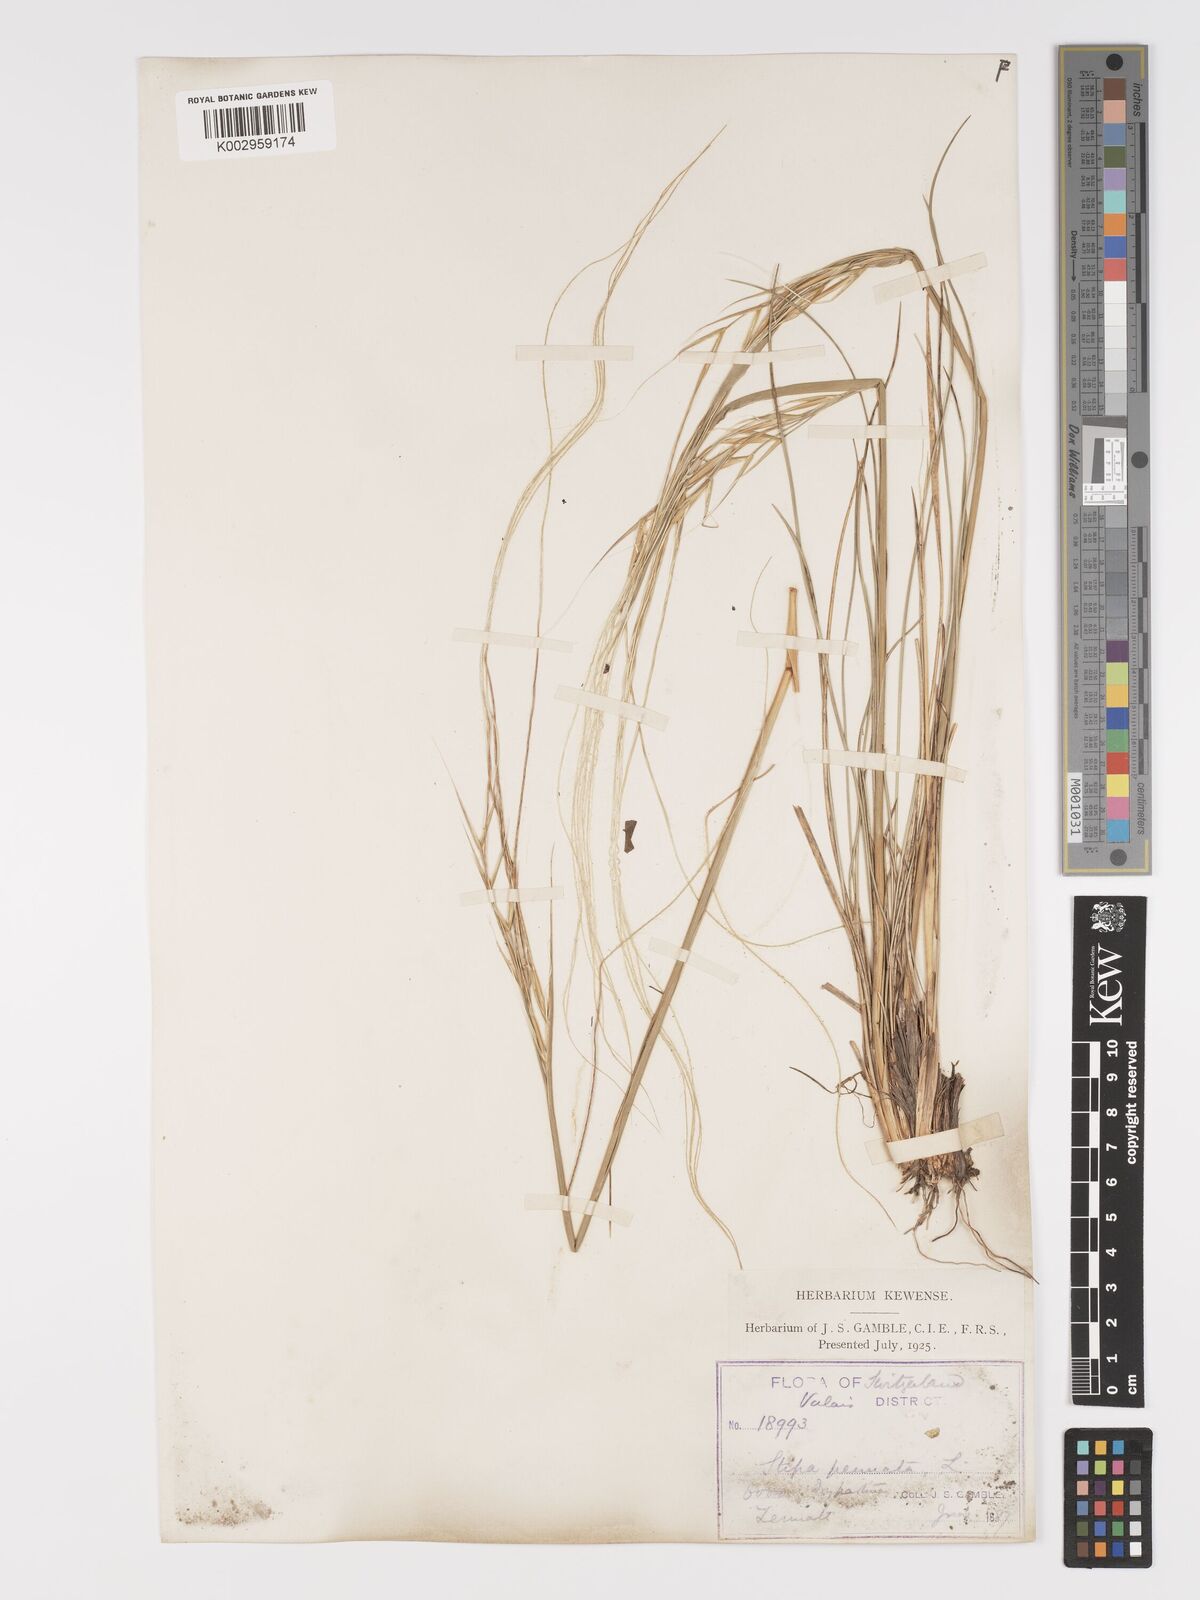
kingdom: Plantae
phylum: Tracheophyta
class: Liliopsida
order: Poales
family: Poaceae
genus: Stipa
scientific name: Stipa pennata
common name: European feather grass
